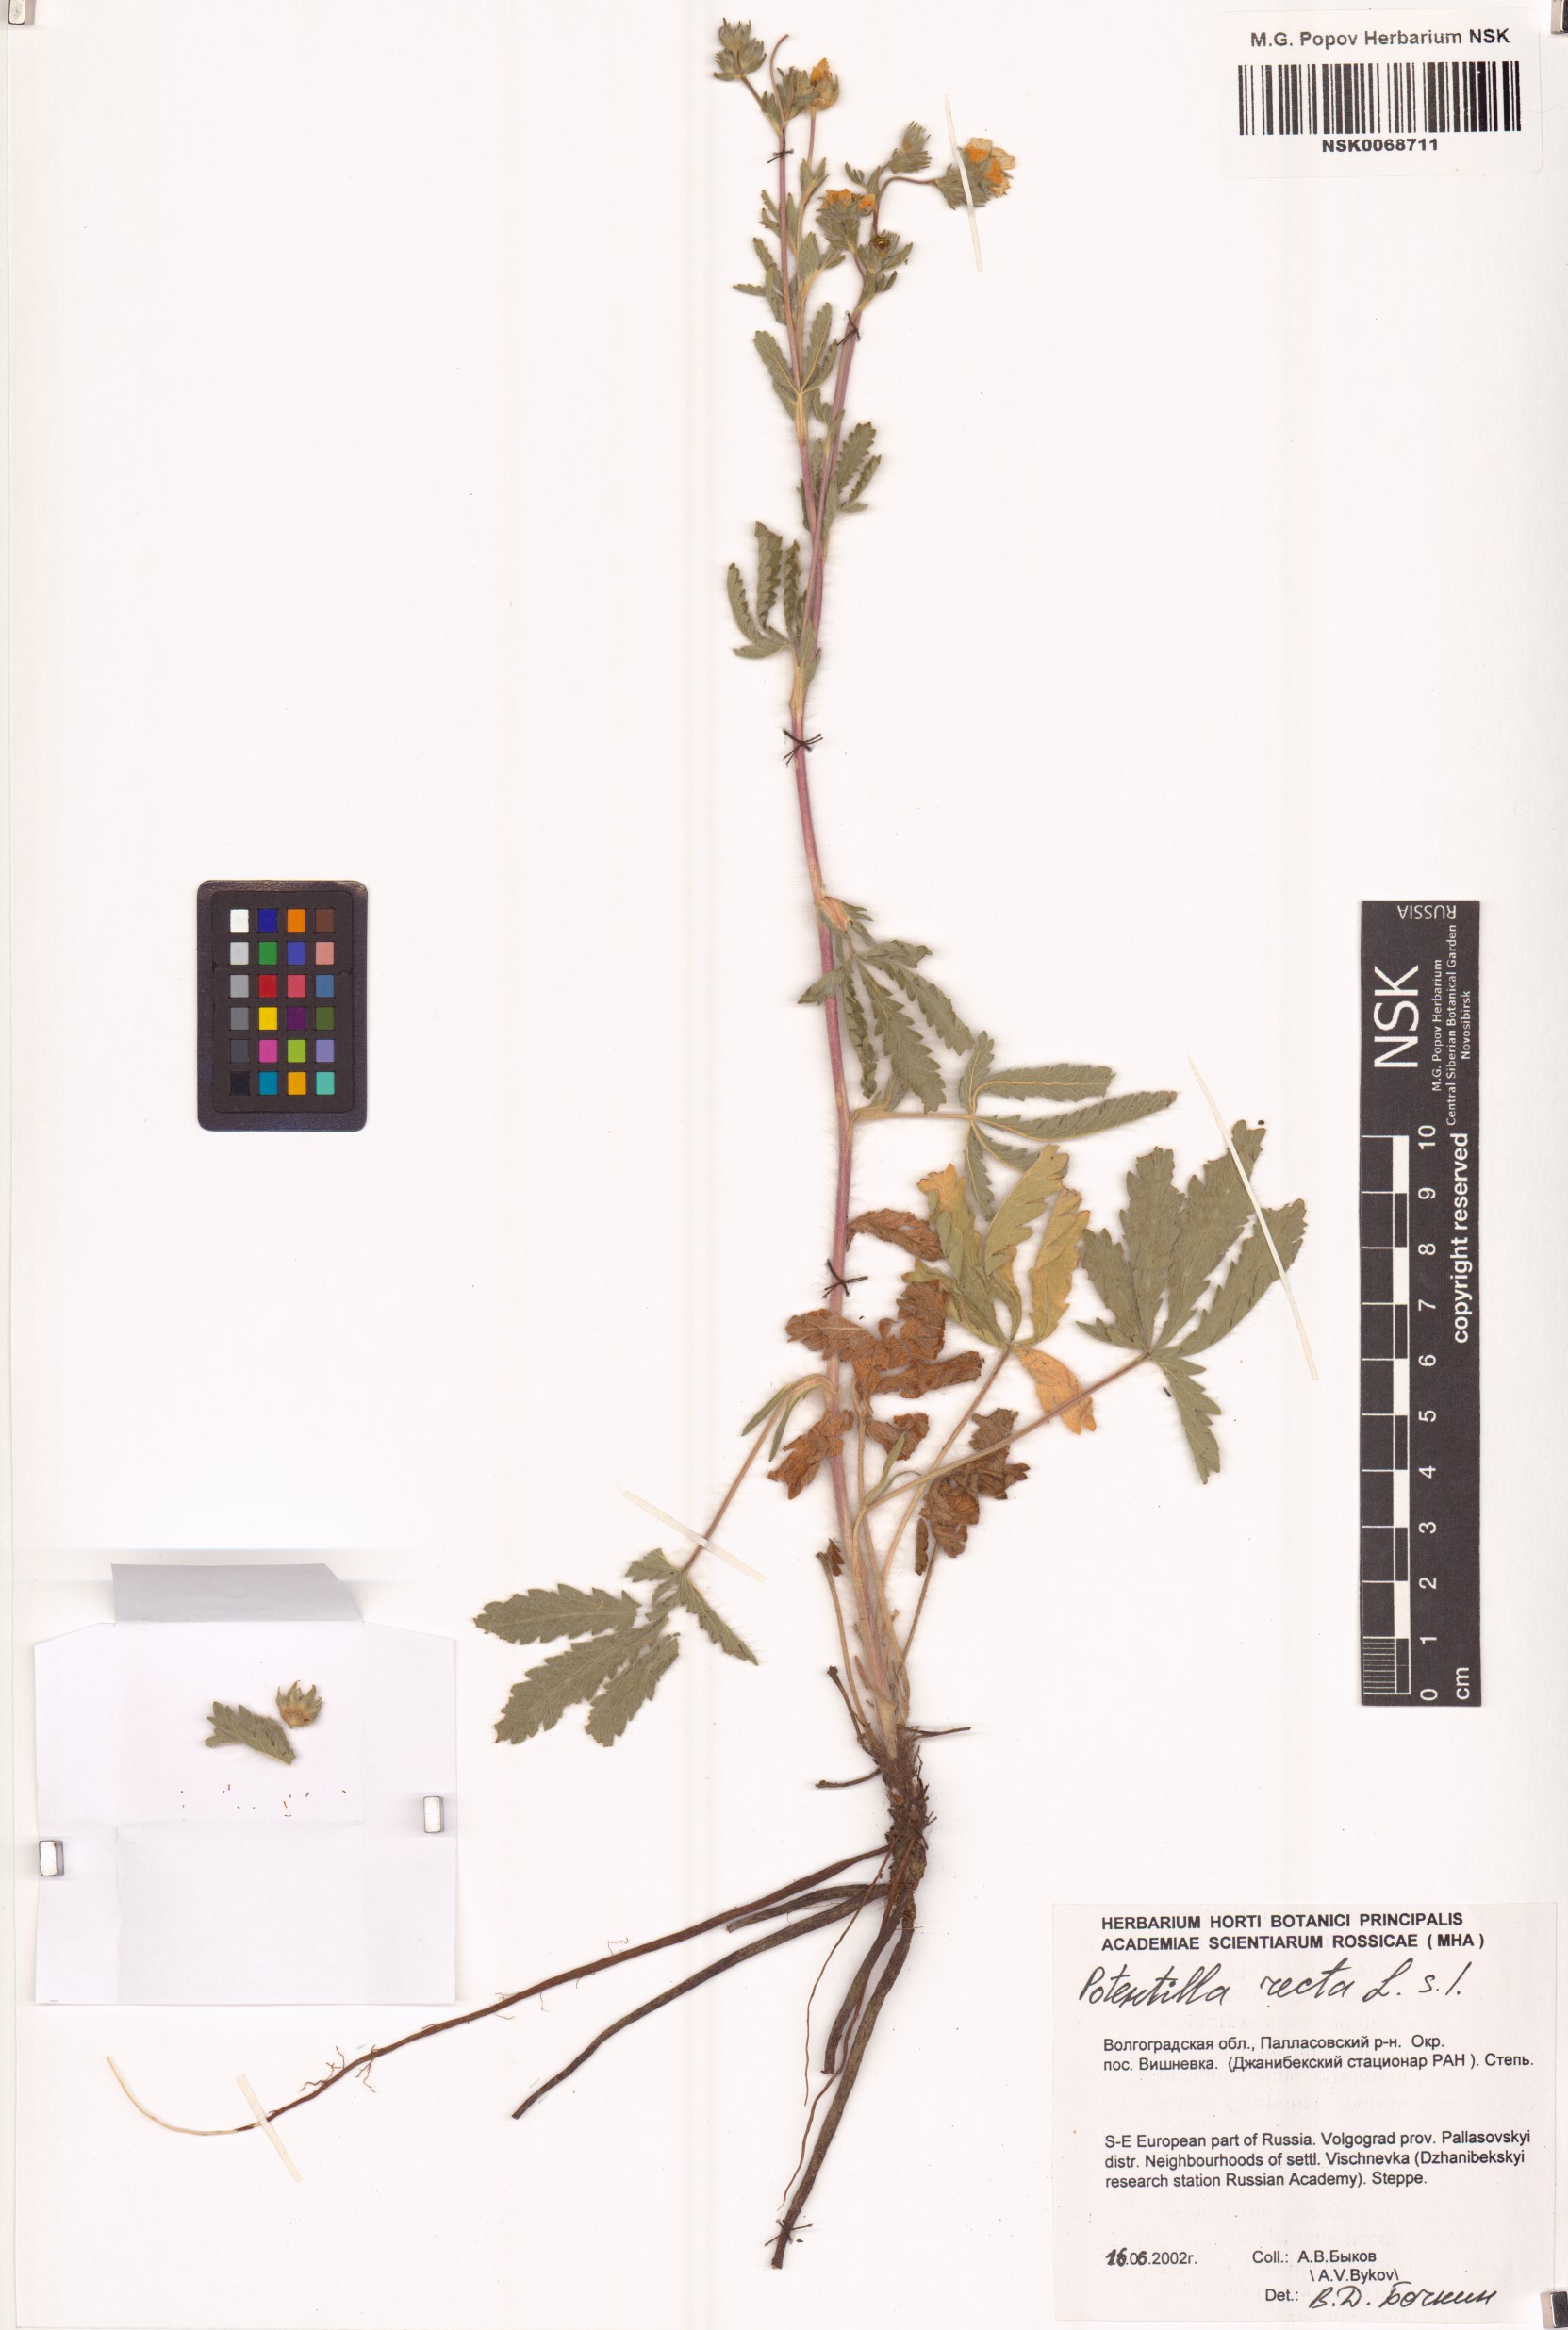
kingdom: Plantae
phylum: Tracheophyta
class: Magnoliopsida
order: Rosales
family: Rosaceae
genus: Potentilla
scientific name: Potentilla recta
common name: Sulphur cinquefoil
